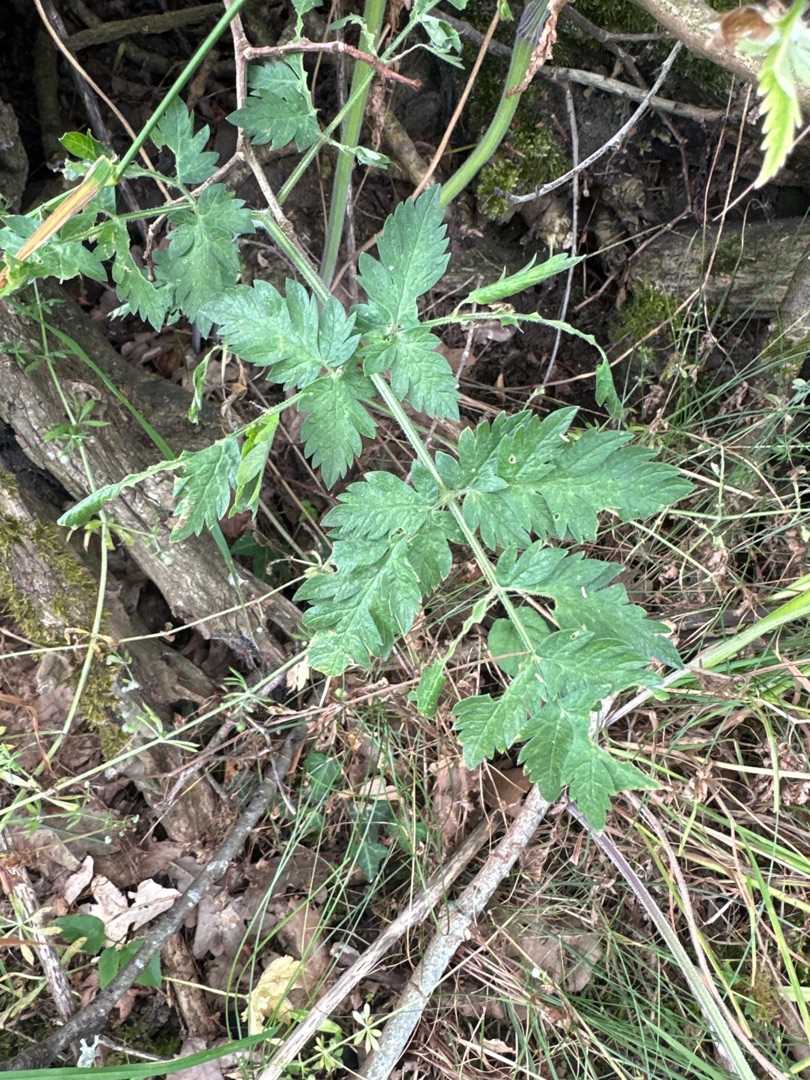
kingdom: Plantae
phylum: Tracheophyta
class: Magnoliopsida
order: Apiales
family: Apiaceae
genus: Anthriscus
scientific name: Anthriscus sylvestris
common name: Vild kørvel
